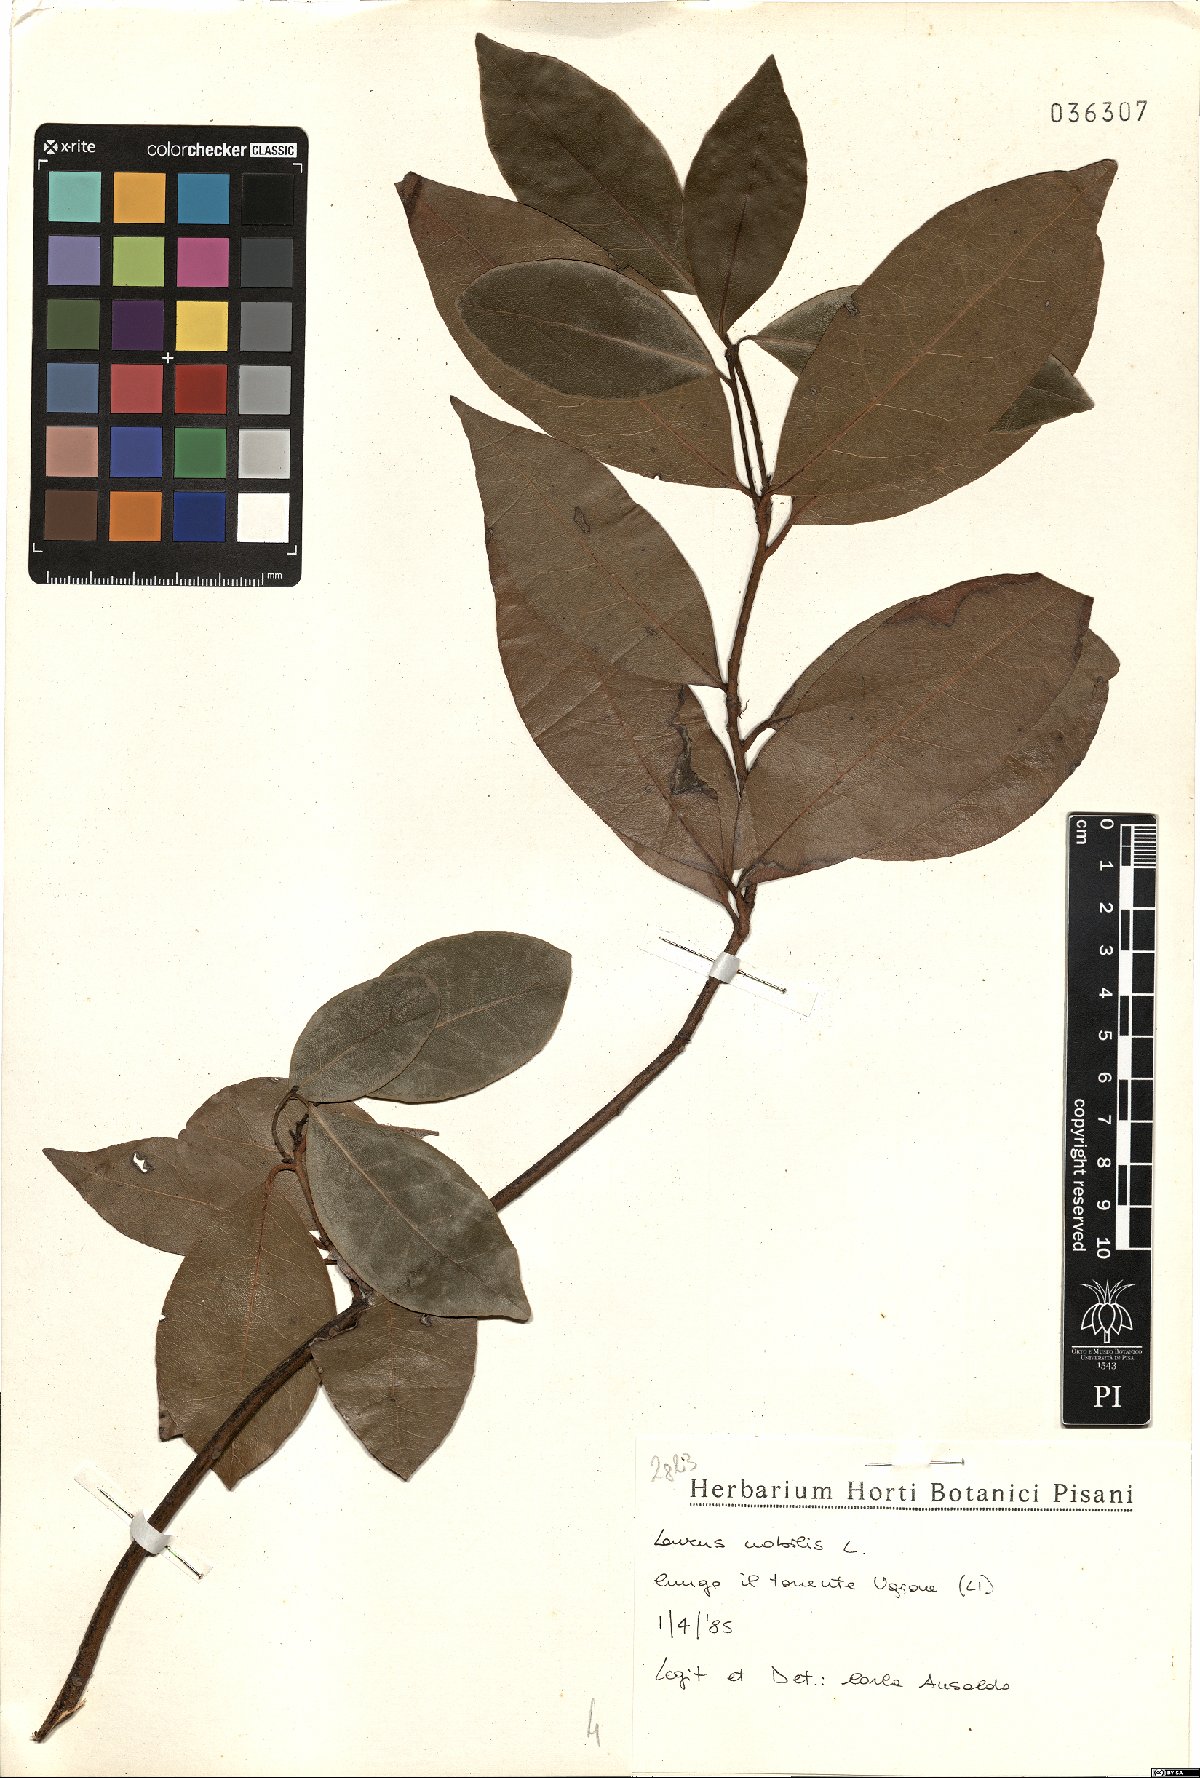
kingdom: Plantae
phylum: Tracheophyta
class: Magnoliopsida
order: Laurales
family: Lauraceae
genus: Laurus
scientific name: Laurus nobilis
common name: Bay
